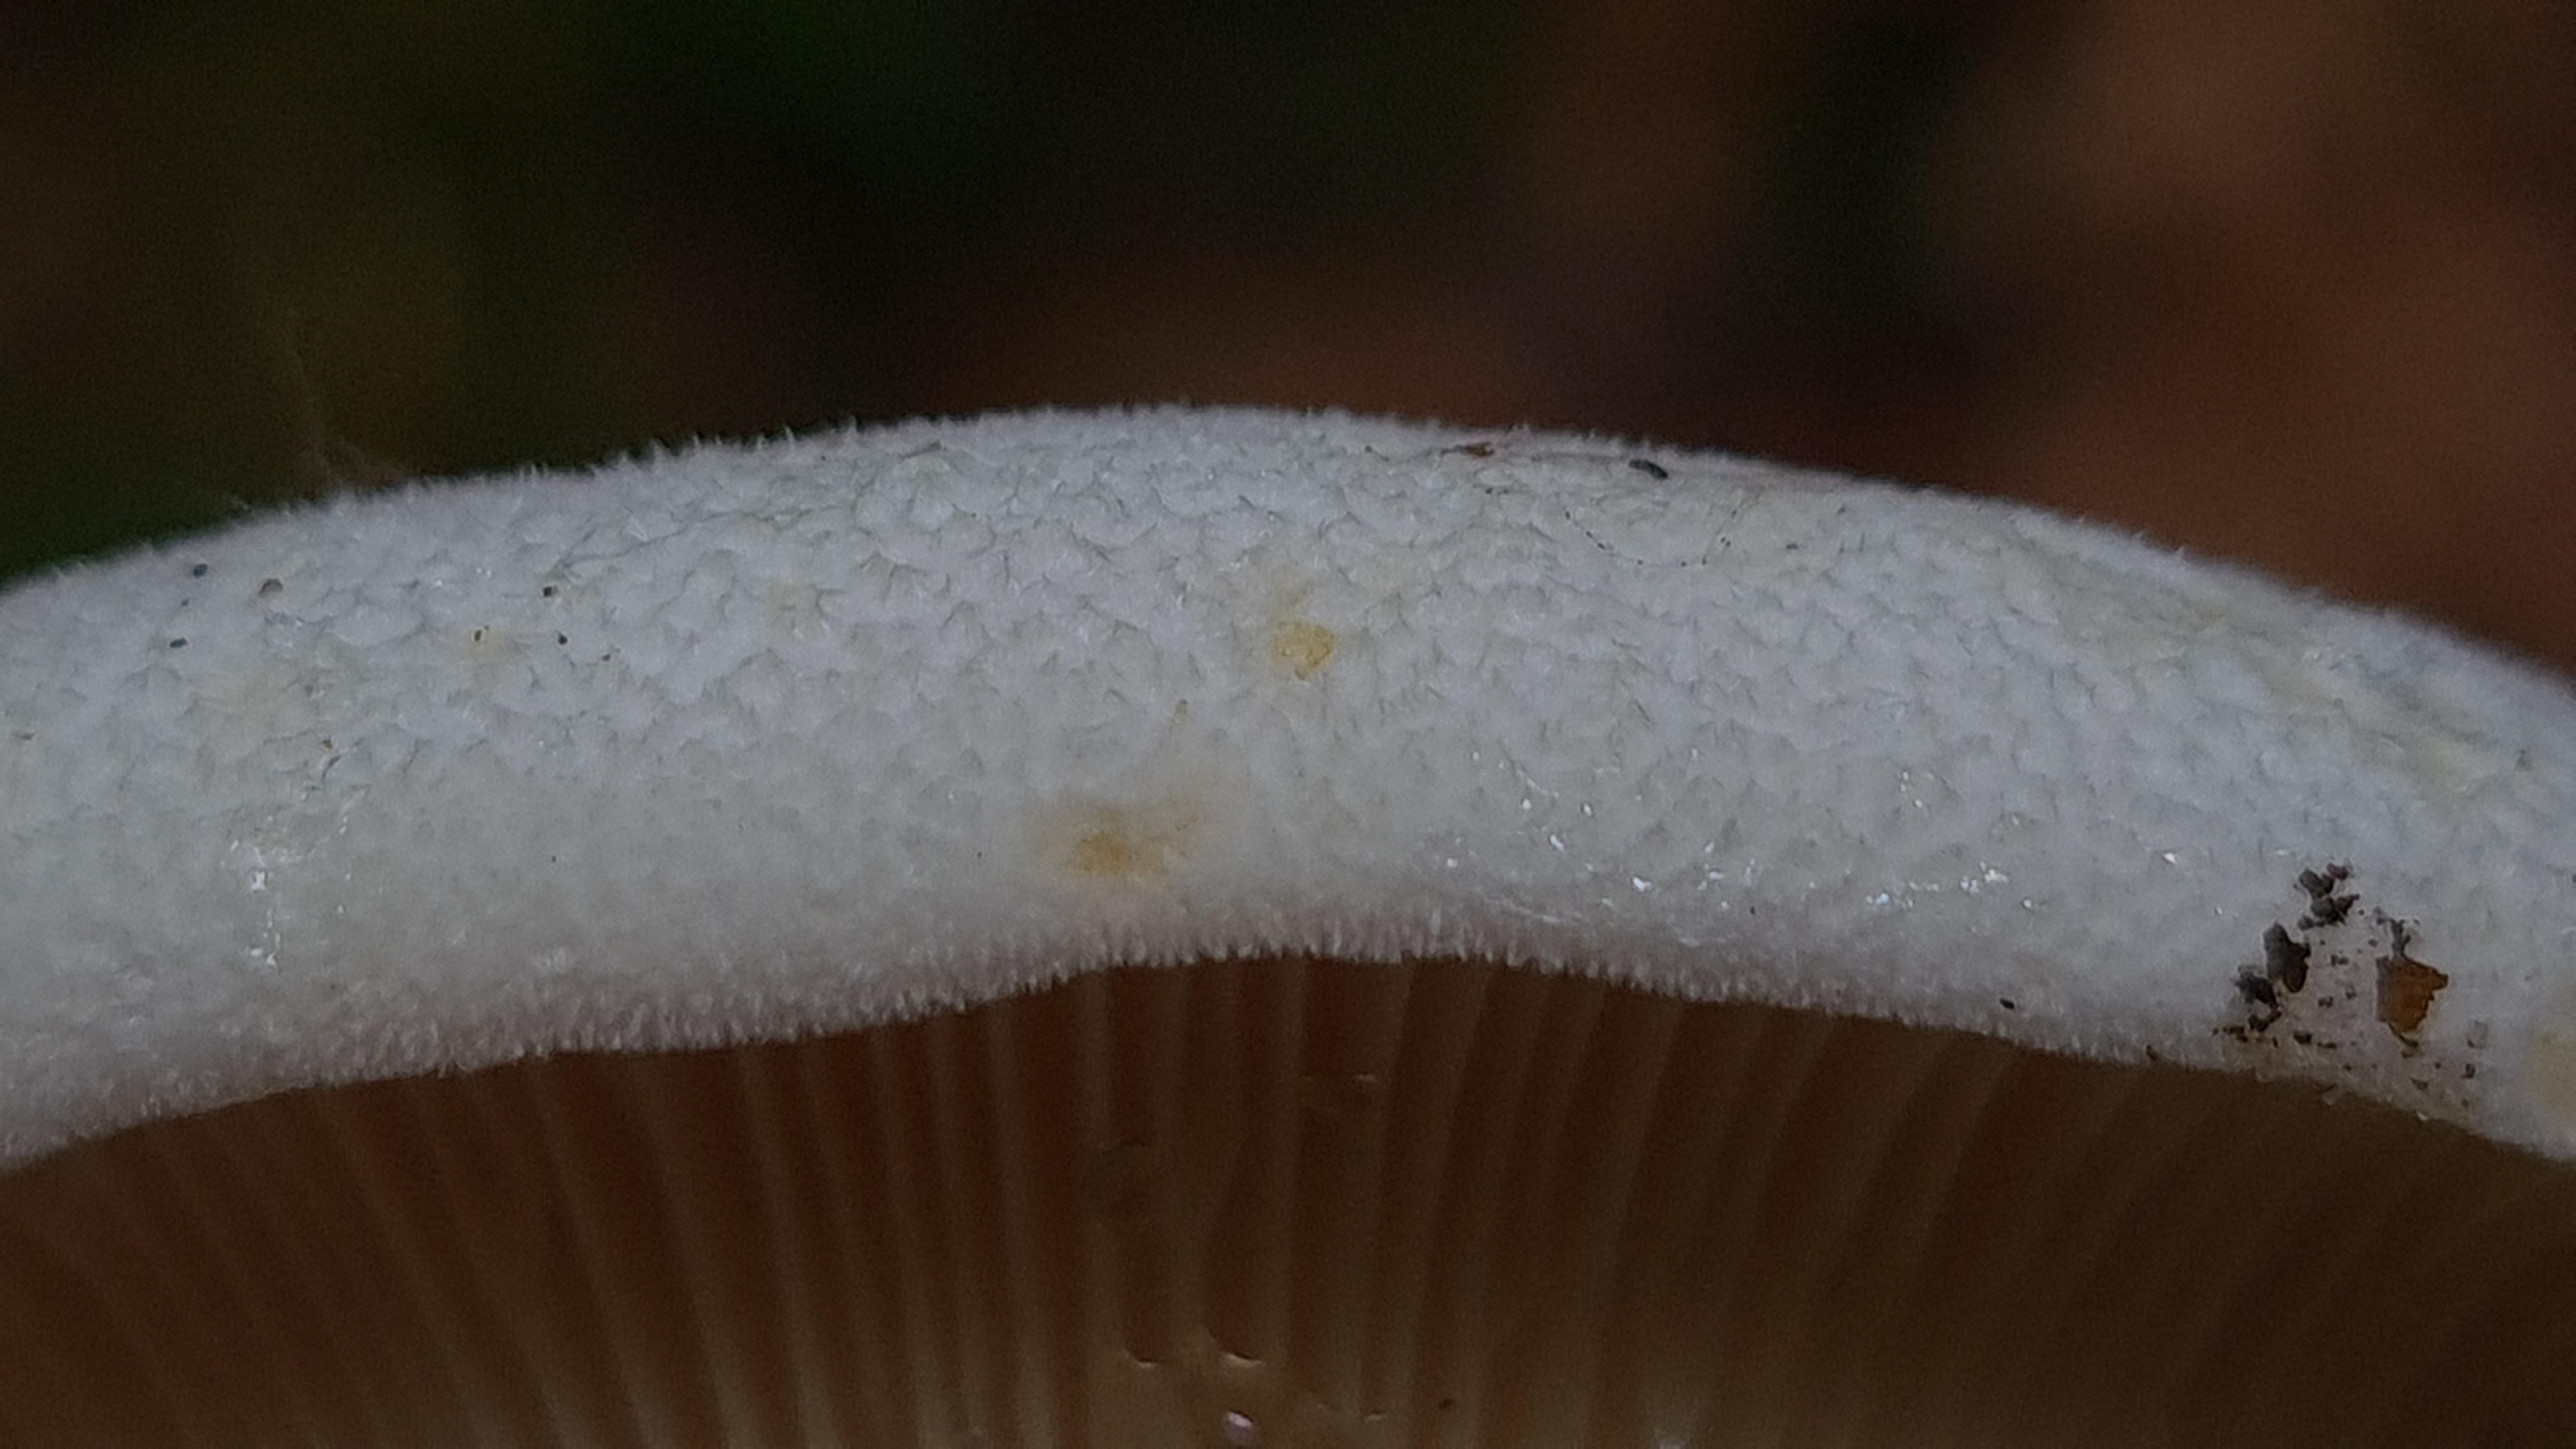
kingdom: Fungi
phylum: Basidiomycota
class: Agaricomycetes
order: Russulales
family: Russulaceae
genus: Lactifluus
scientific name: Lactifluus vellereus
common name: hvidfiltet mælkehat
